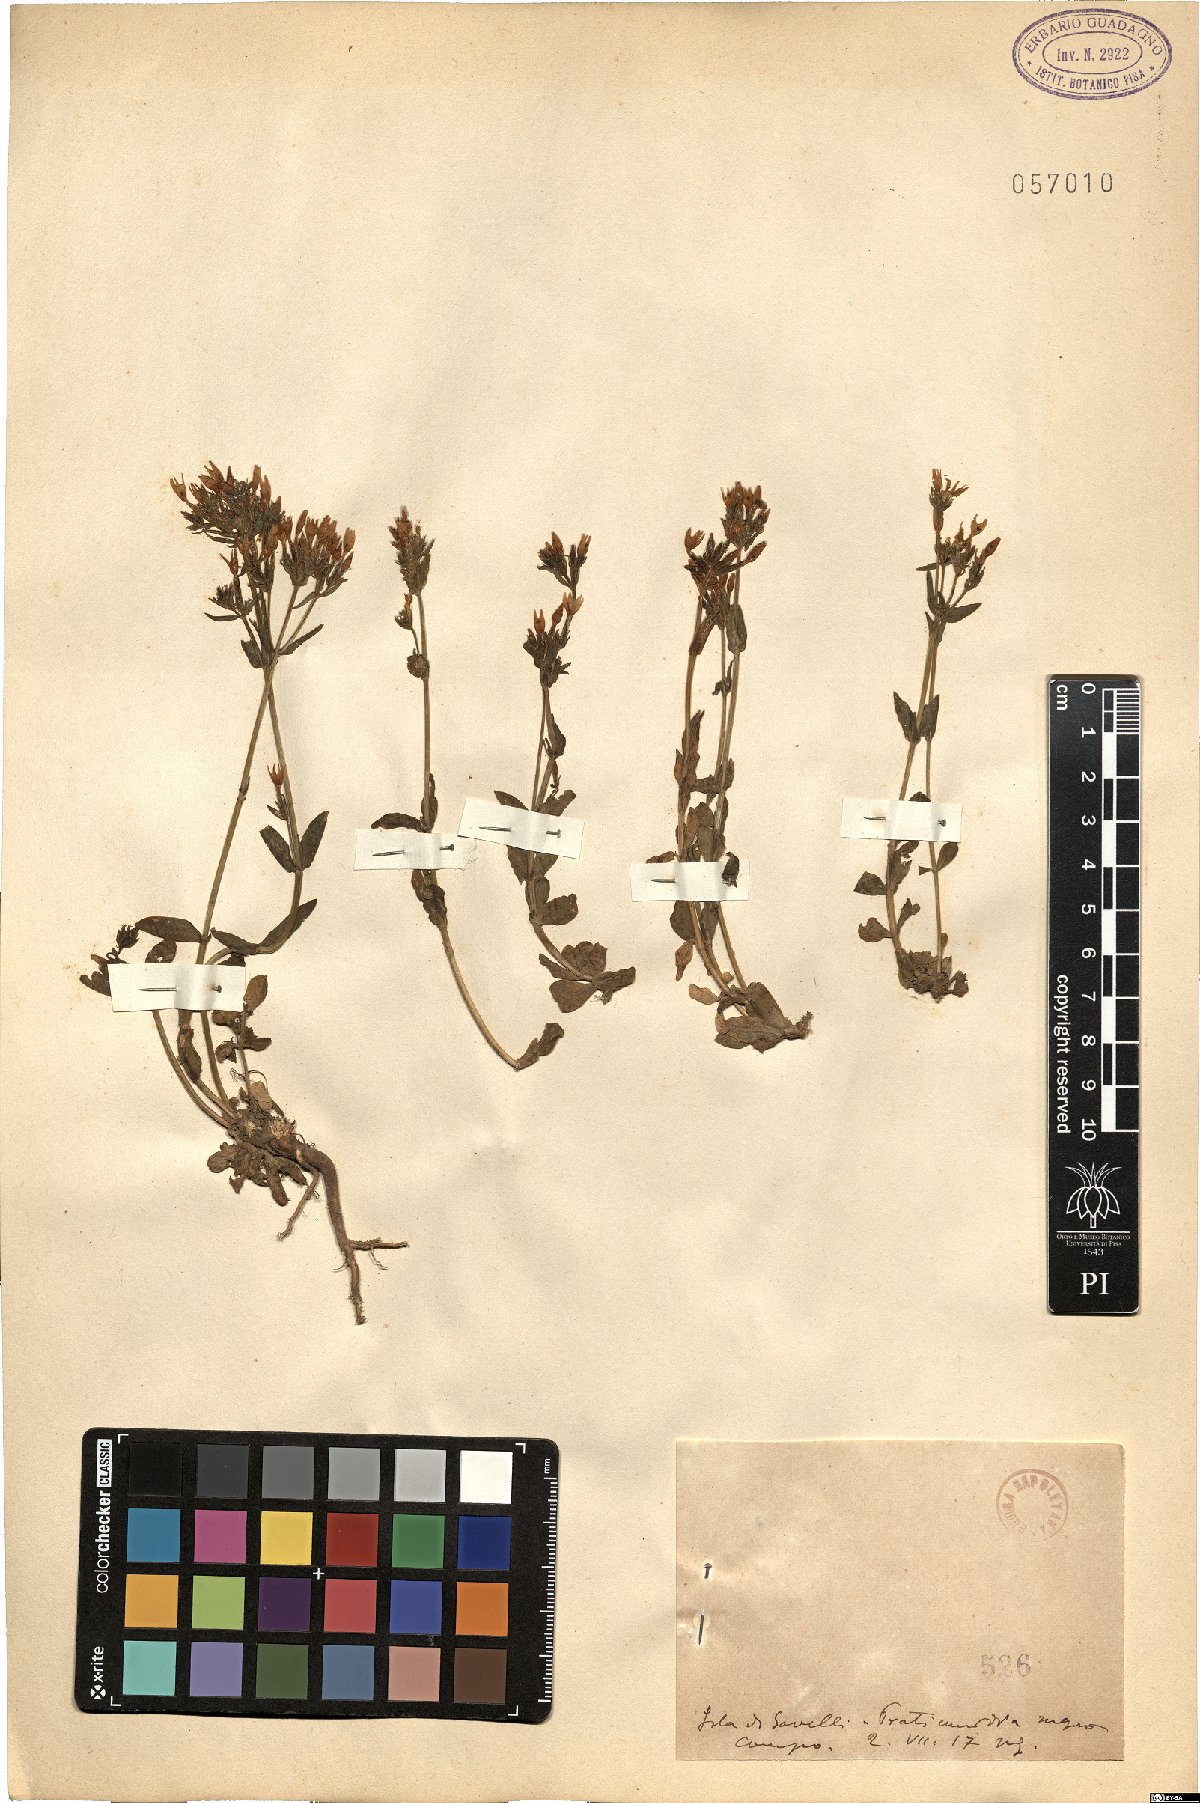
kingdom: Plantae
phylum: Tracheophyta
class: Magnoliopsida
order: Gentianales
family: Gentianaceae
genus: Erythraea
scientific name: Erythraea
